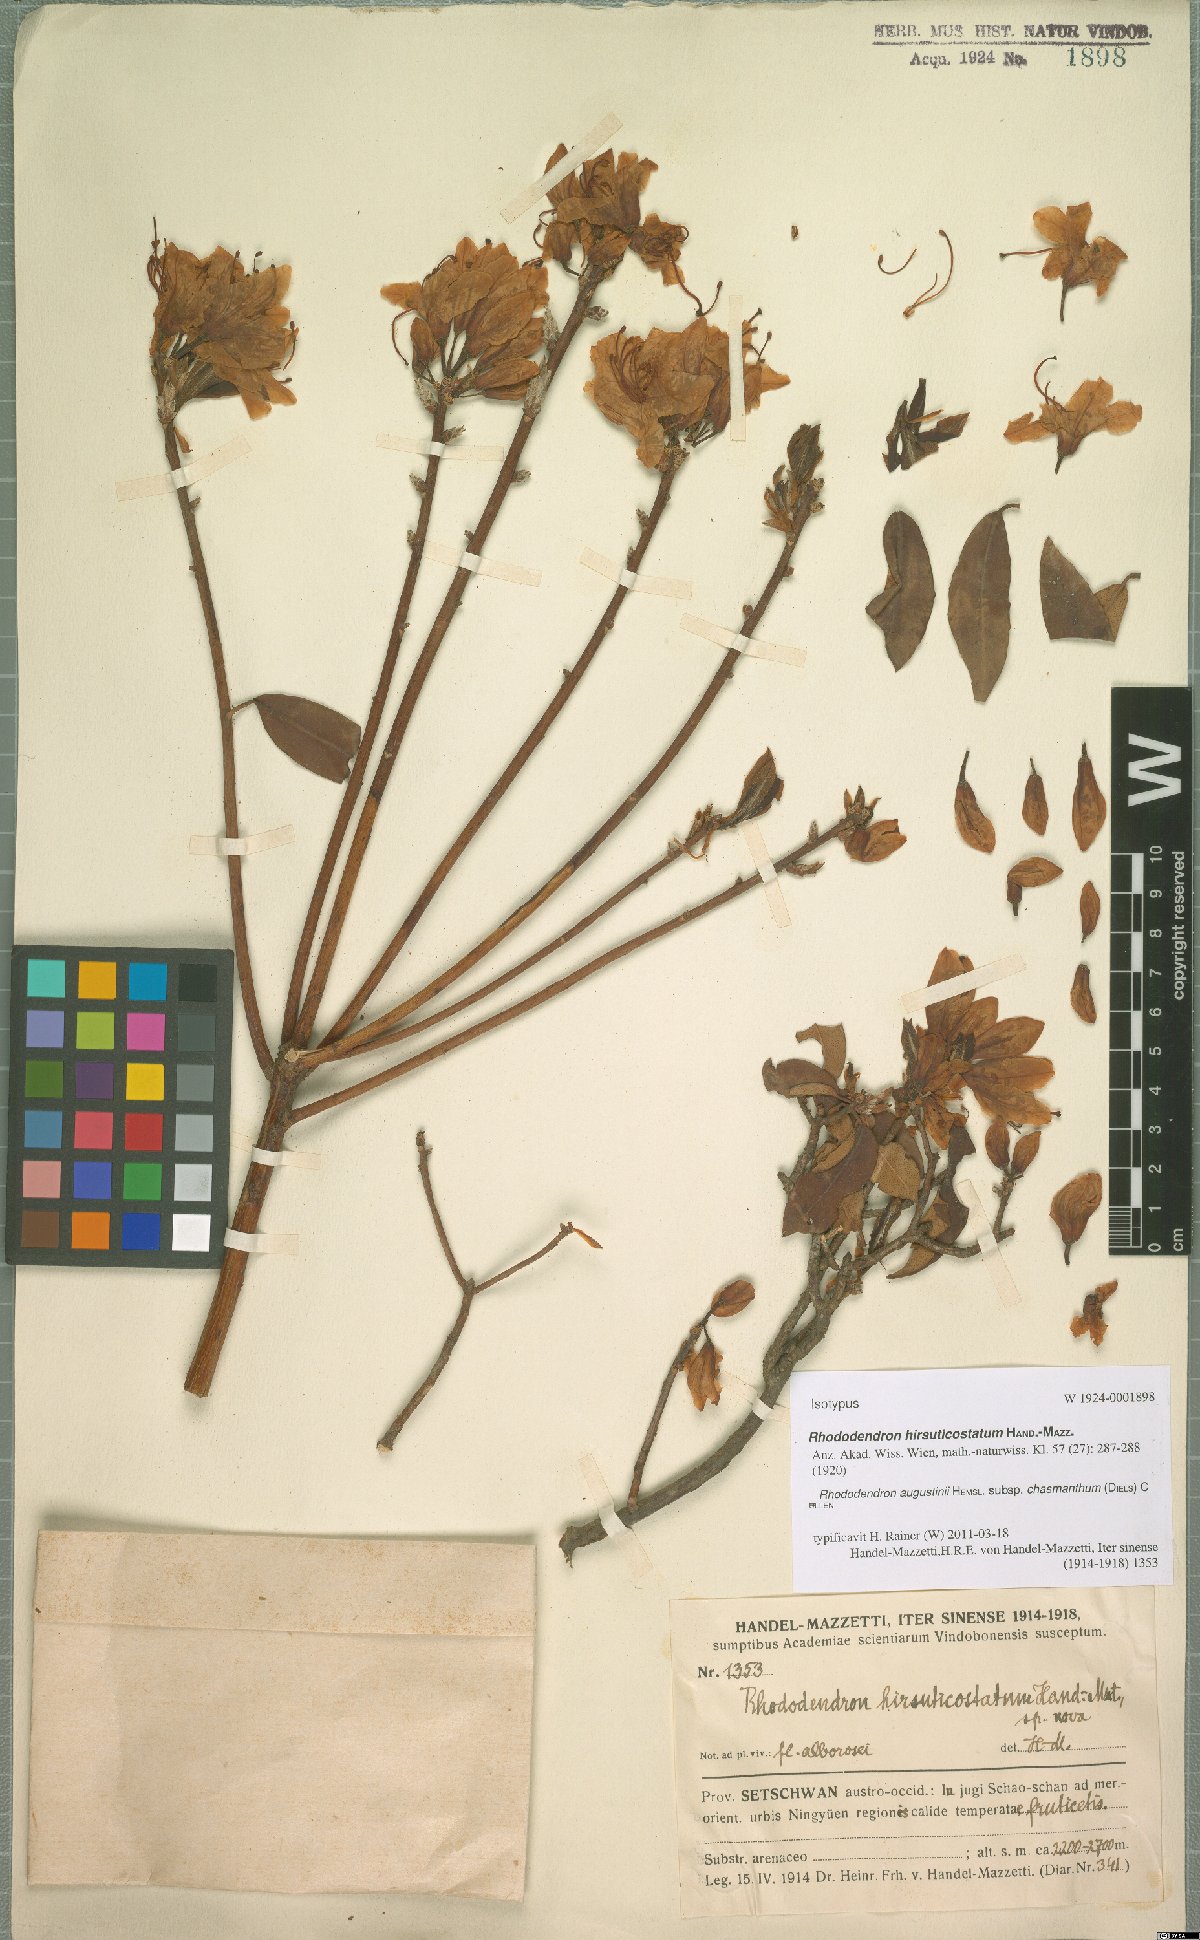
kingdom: Plantae
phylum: Tracheophyta
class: Magnoliopsida
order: Ericales
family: Ericaceae
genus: Rhododendron
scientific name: Rhododendron augustinii
